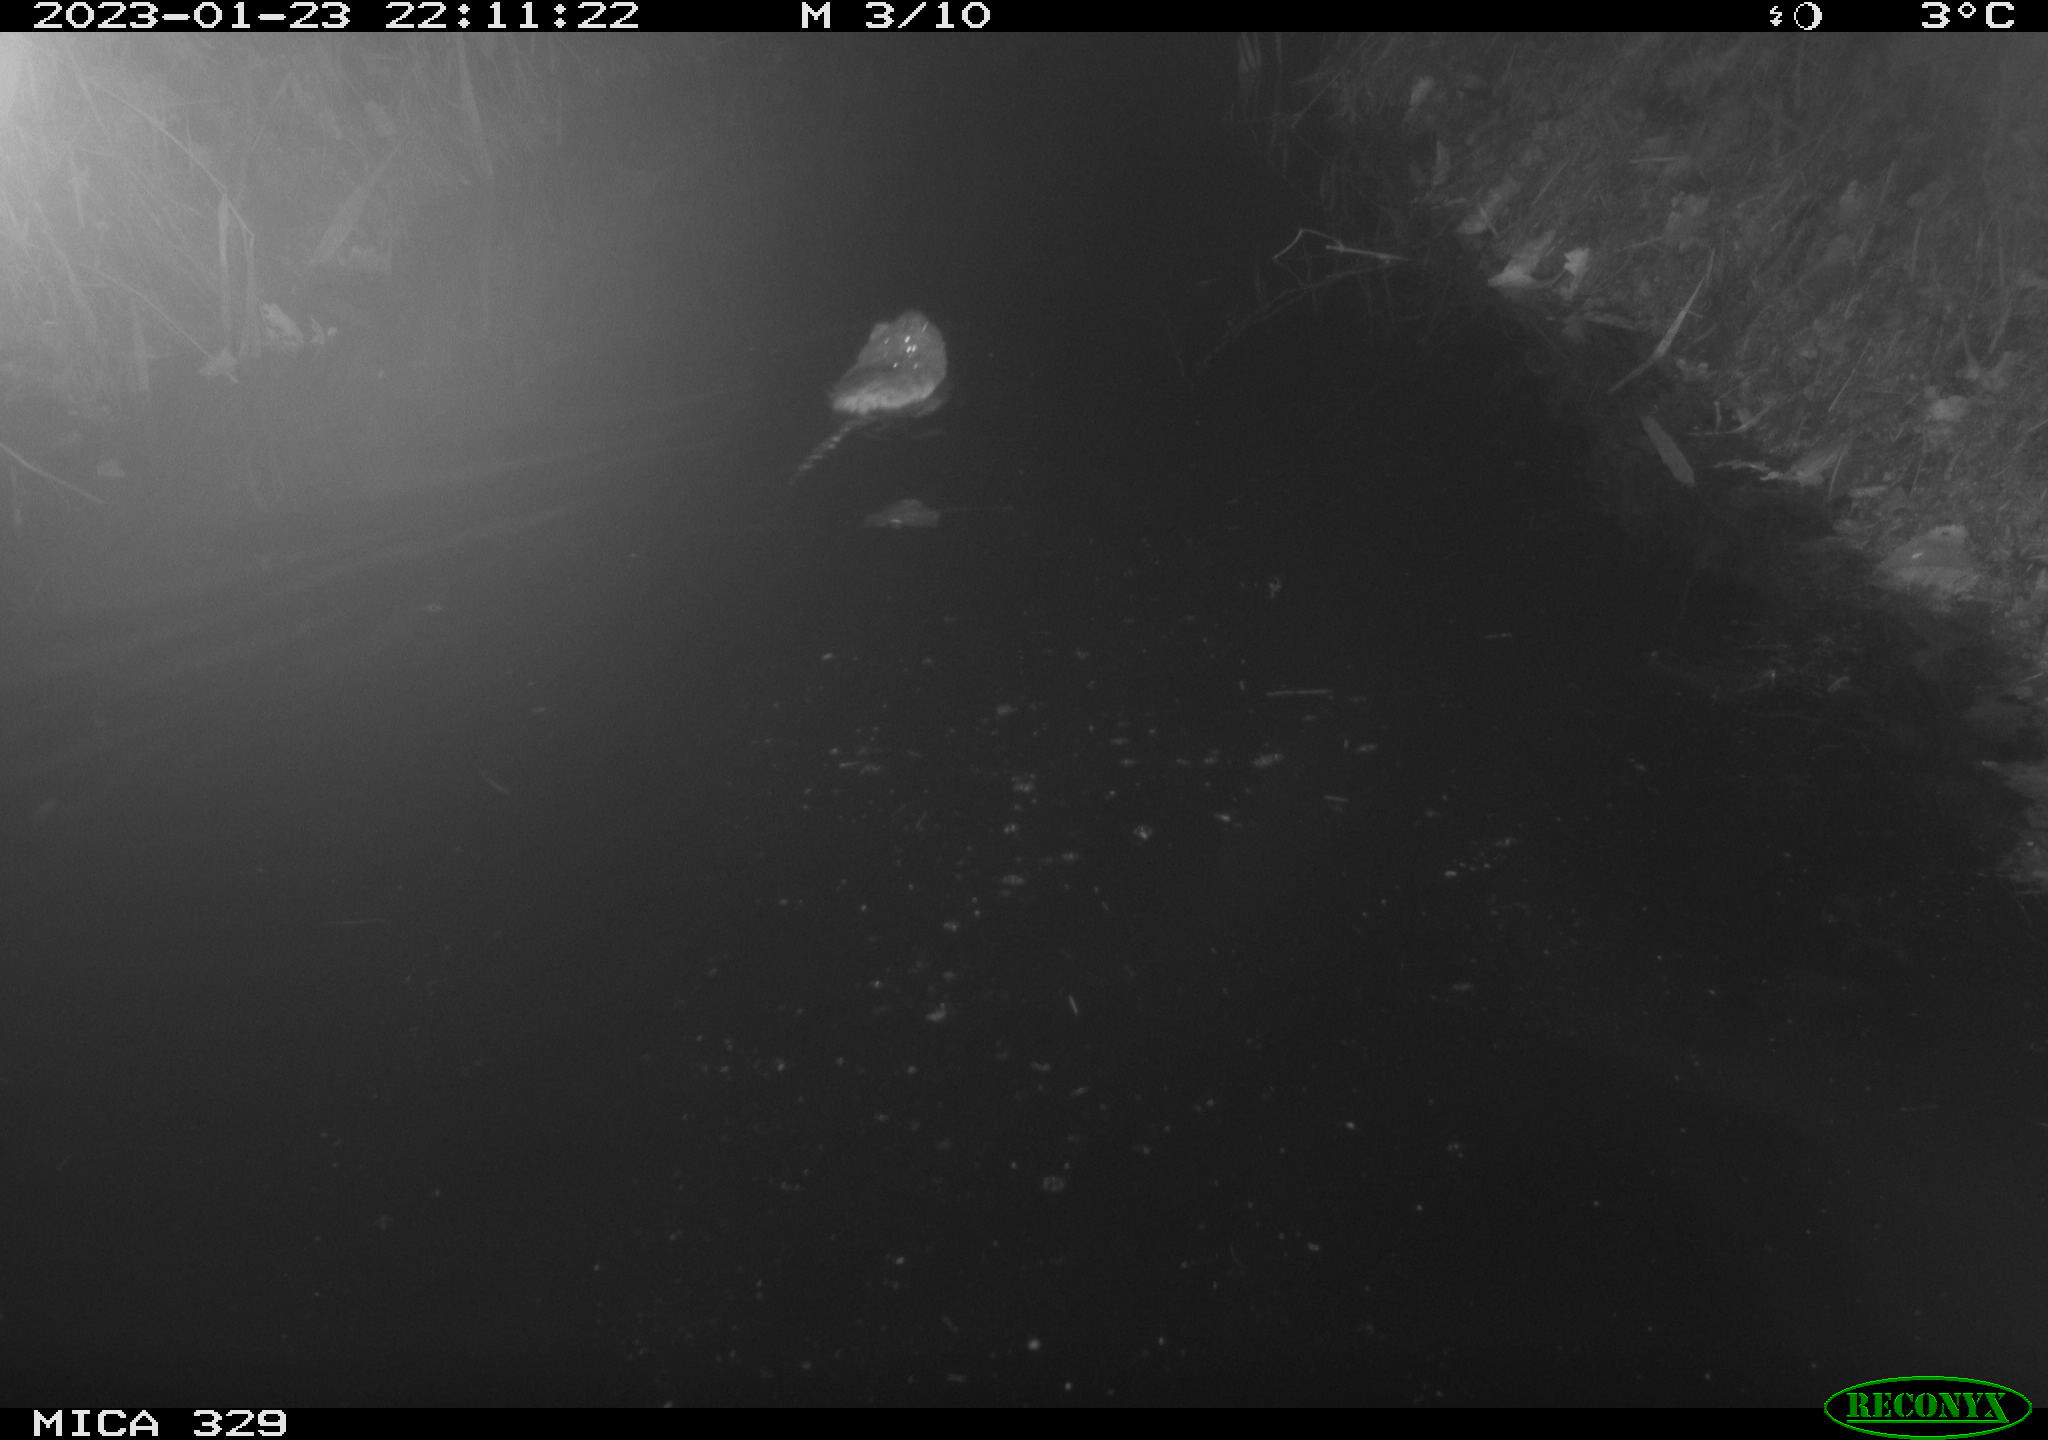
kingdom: Animalia
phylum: Chordata
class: Mammalia
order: Rodentia
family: Cricetidae
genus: Ondatra
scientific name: Ondatra zibethicus
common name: Muskrat
